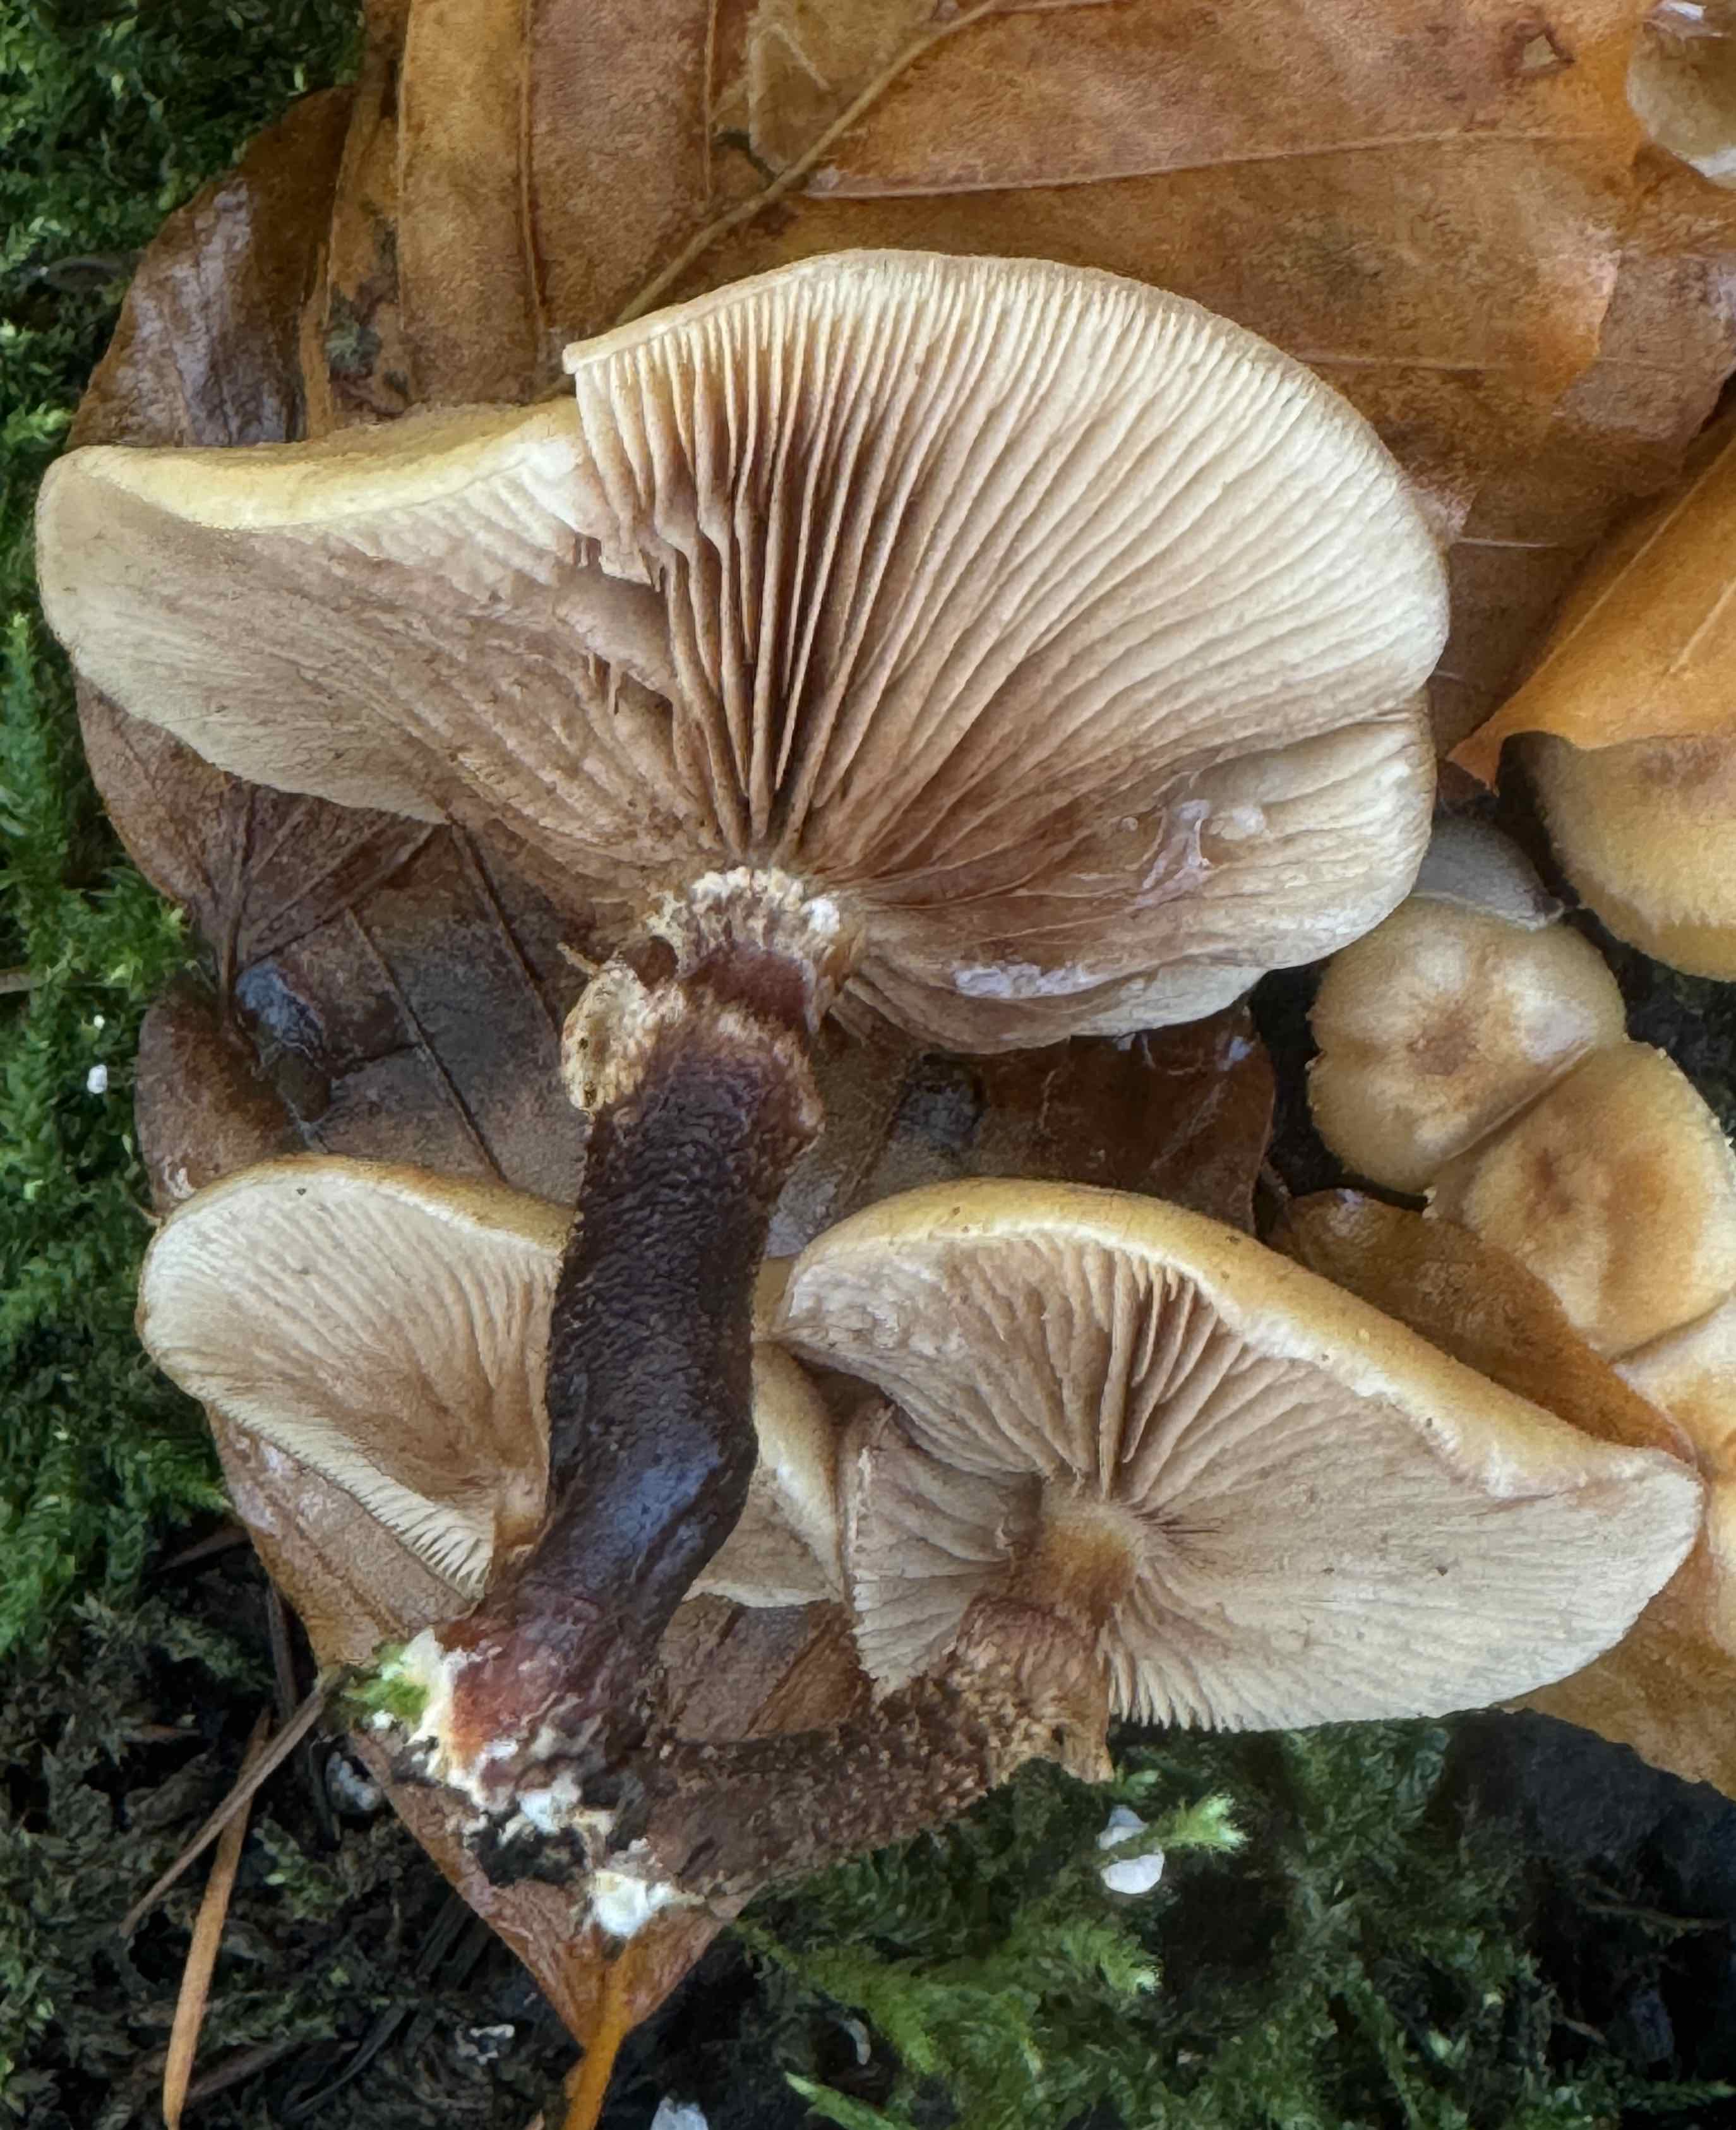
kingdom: Fungi
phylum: Basidiomycota
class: Agaricomycetes
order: Agaricales
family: Strophariaceae
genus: Kuehneromyces
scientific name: Kuehneromyces mutabilis
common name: foranderlig skælhat
